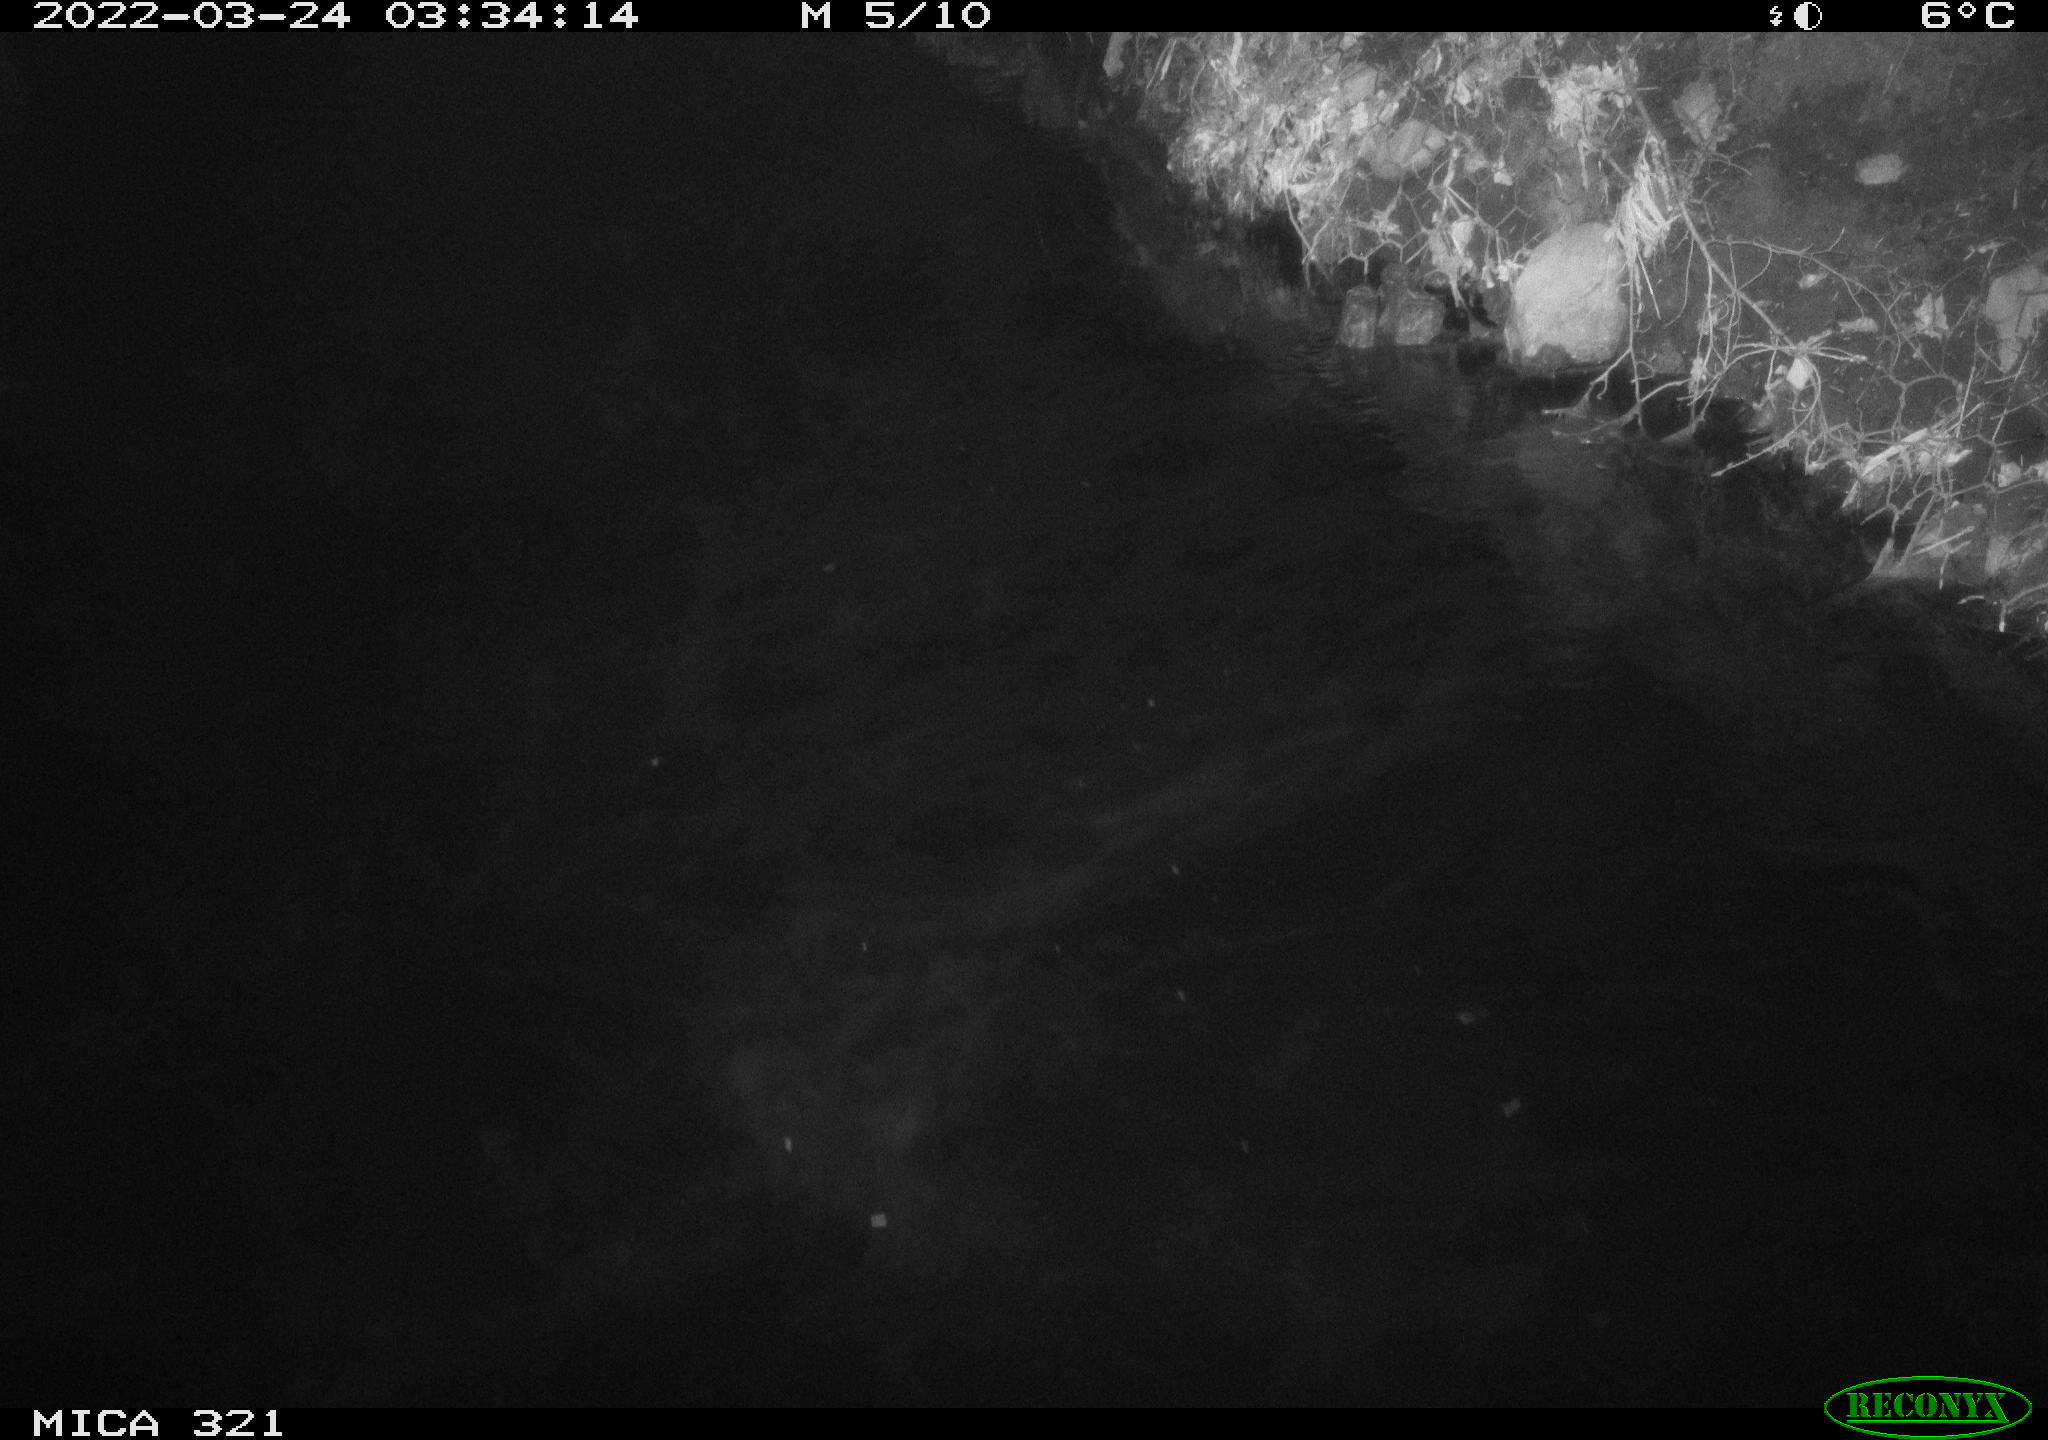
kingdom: Animalia
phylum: Chordata
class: Aves
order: Anseriformes
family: Anatidae
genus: Anas
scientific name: Anas platyrhynchos
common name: Mallard
